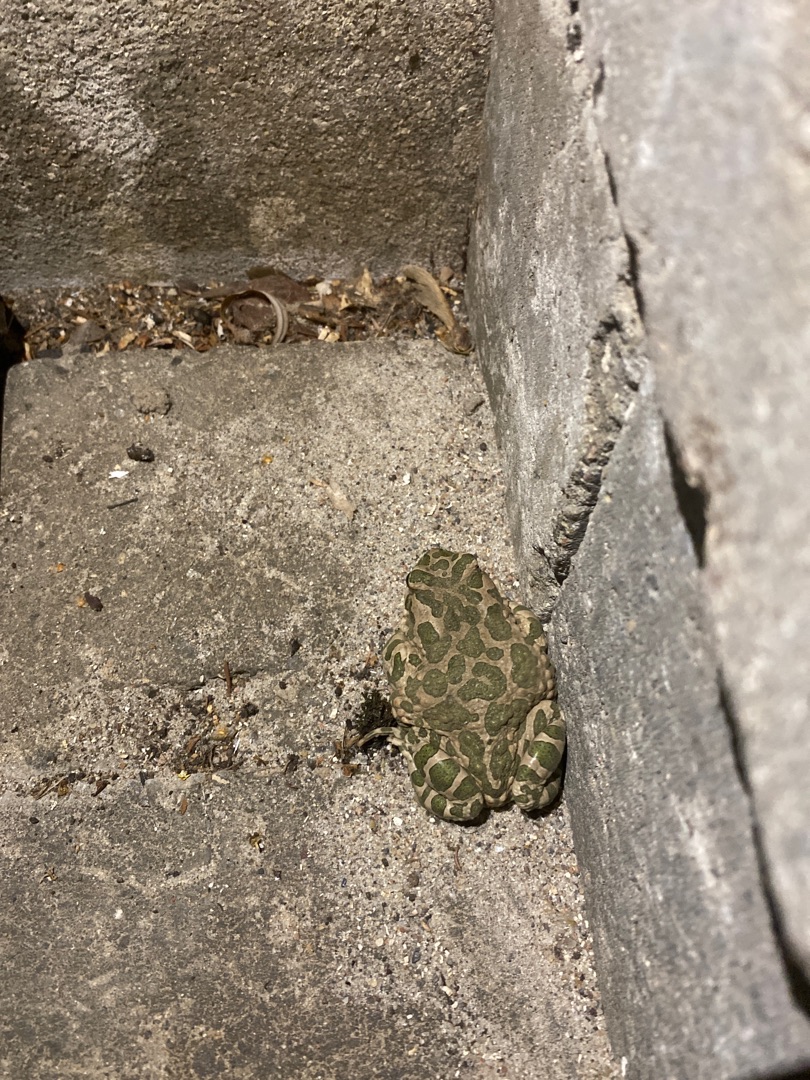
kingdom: Animalia
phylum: Chordata
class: Amphibia
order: Anura
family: Bufonidae
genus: Bufotes
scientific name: Bufotes viridis
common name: Grønbroget tudse
